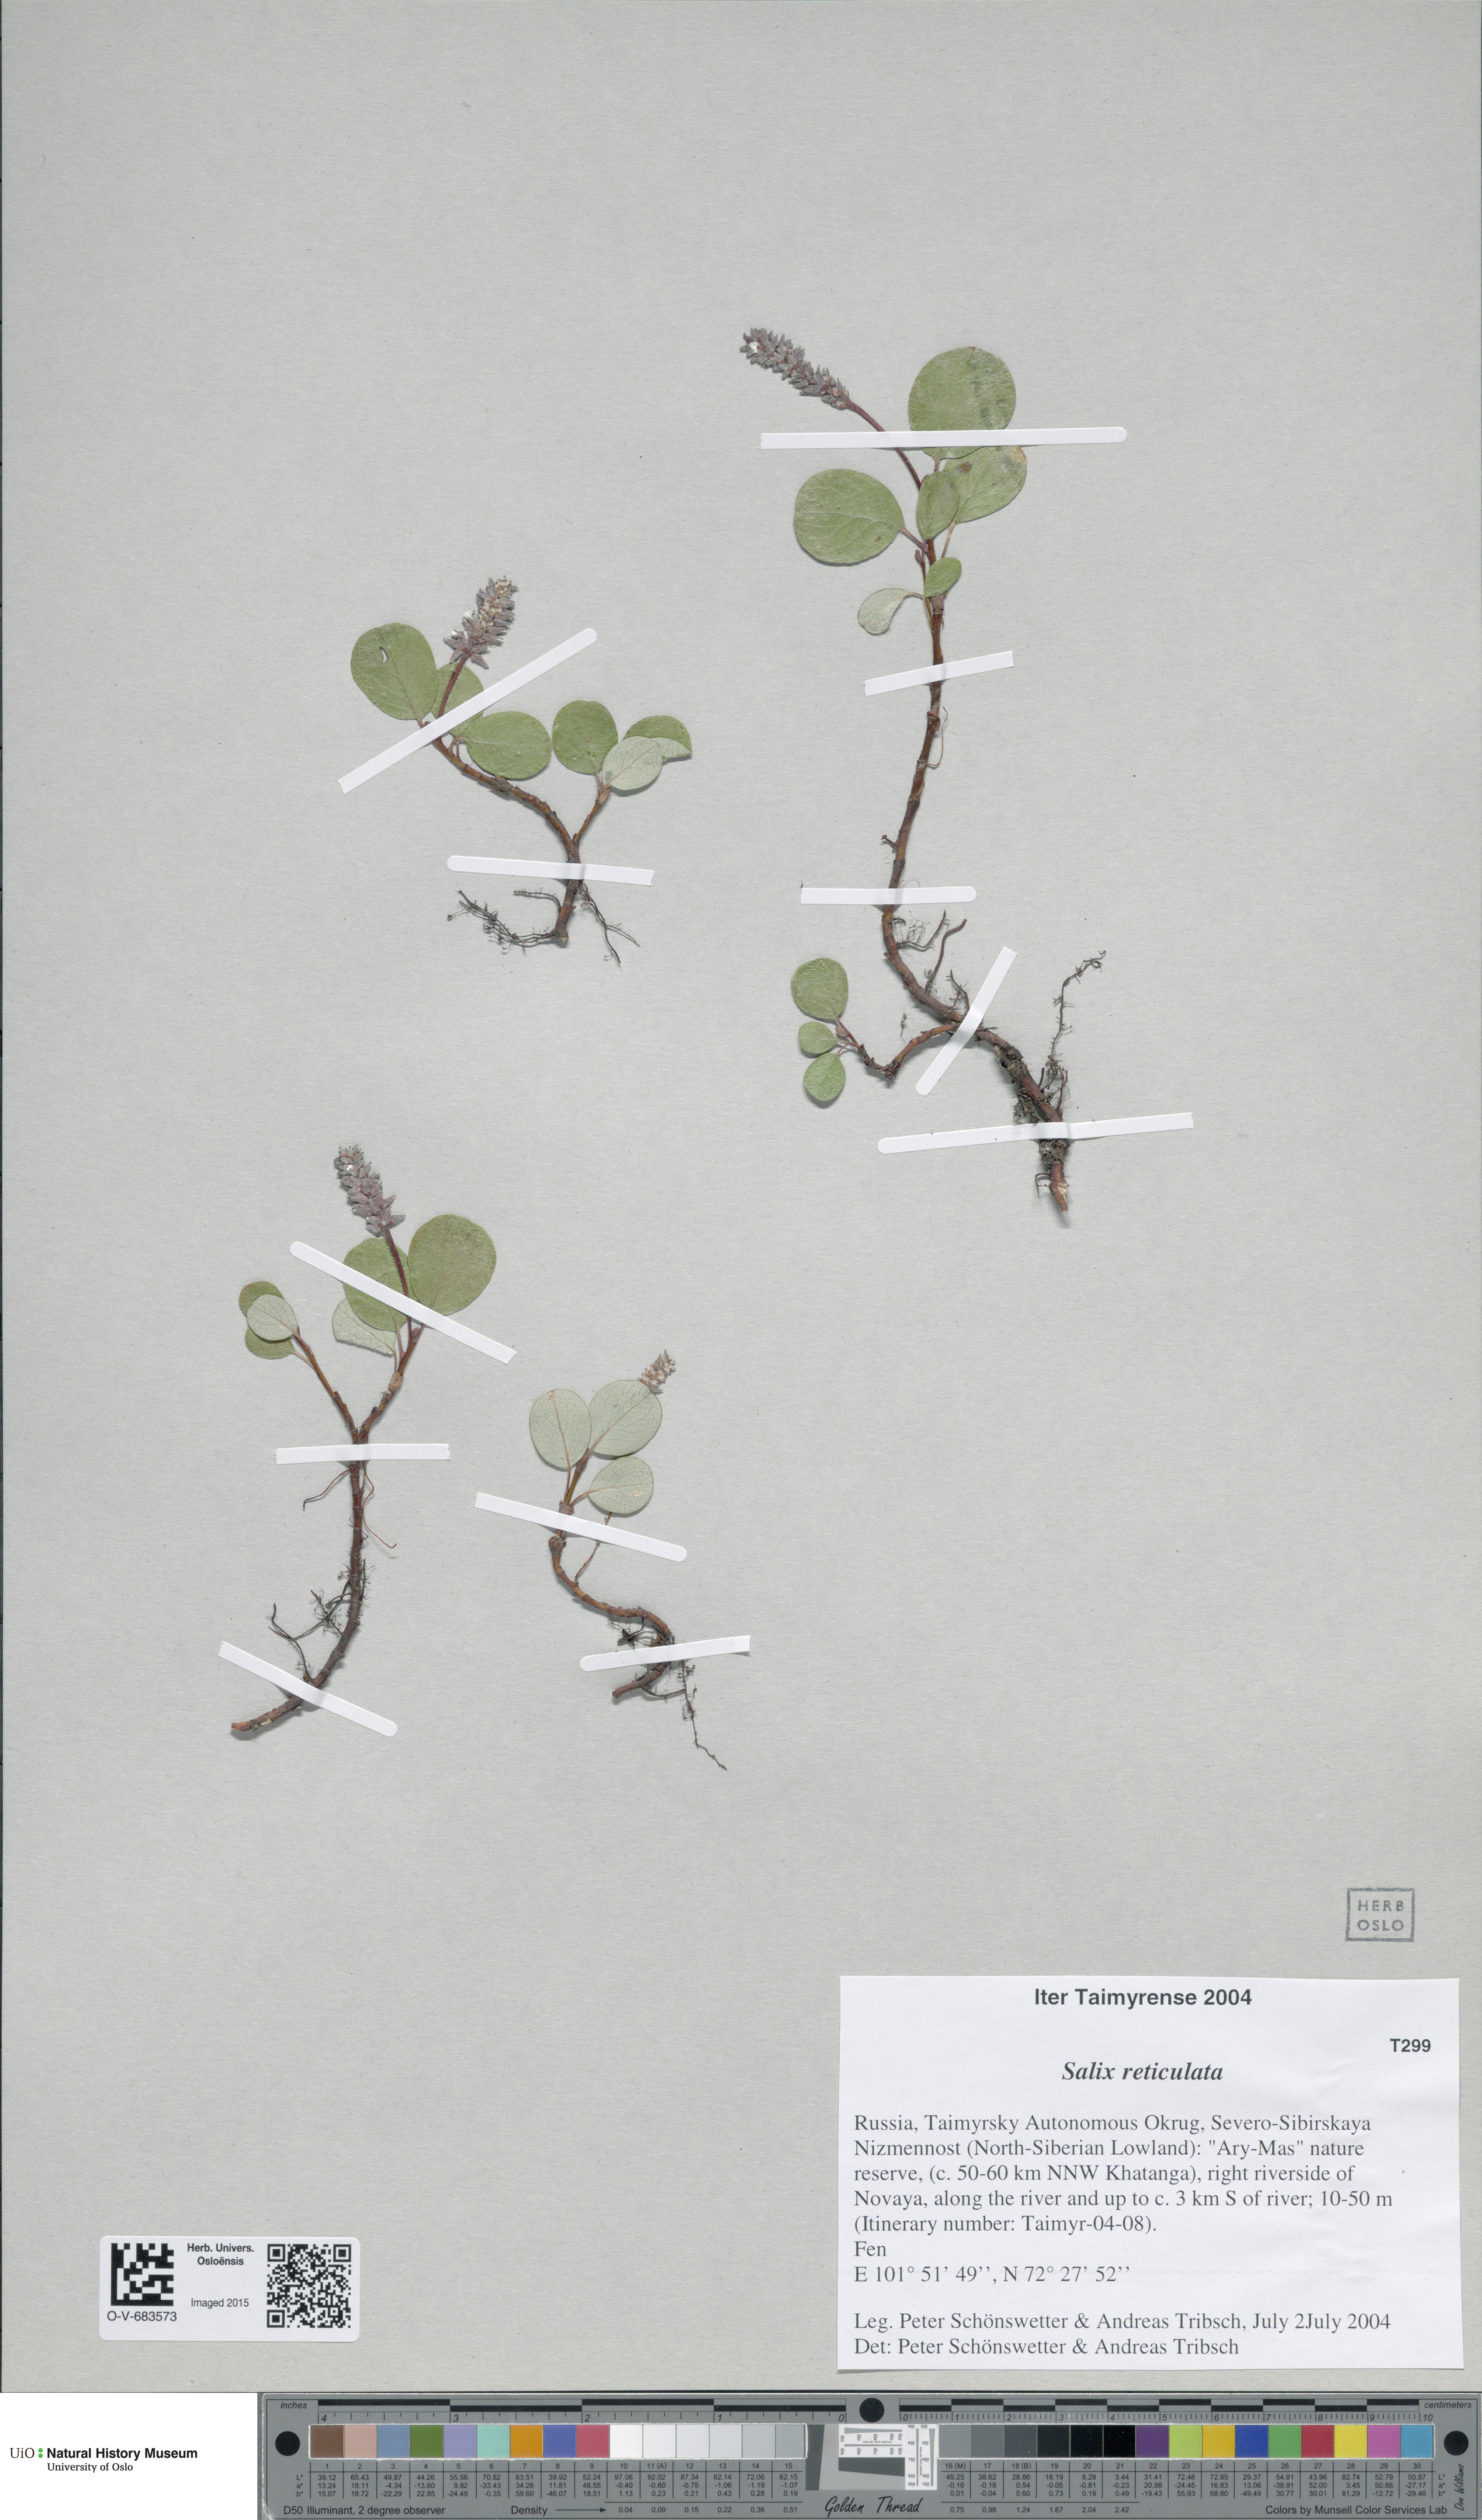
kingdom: Plantae
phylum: Tracheophyta
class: Magnoliopsida
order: Malpighiales
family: Salicaceae
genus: Salix
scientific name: Salix reticulata
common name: Net-leaved willow
